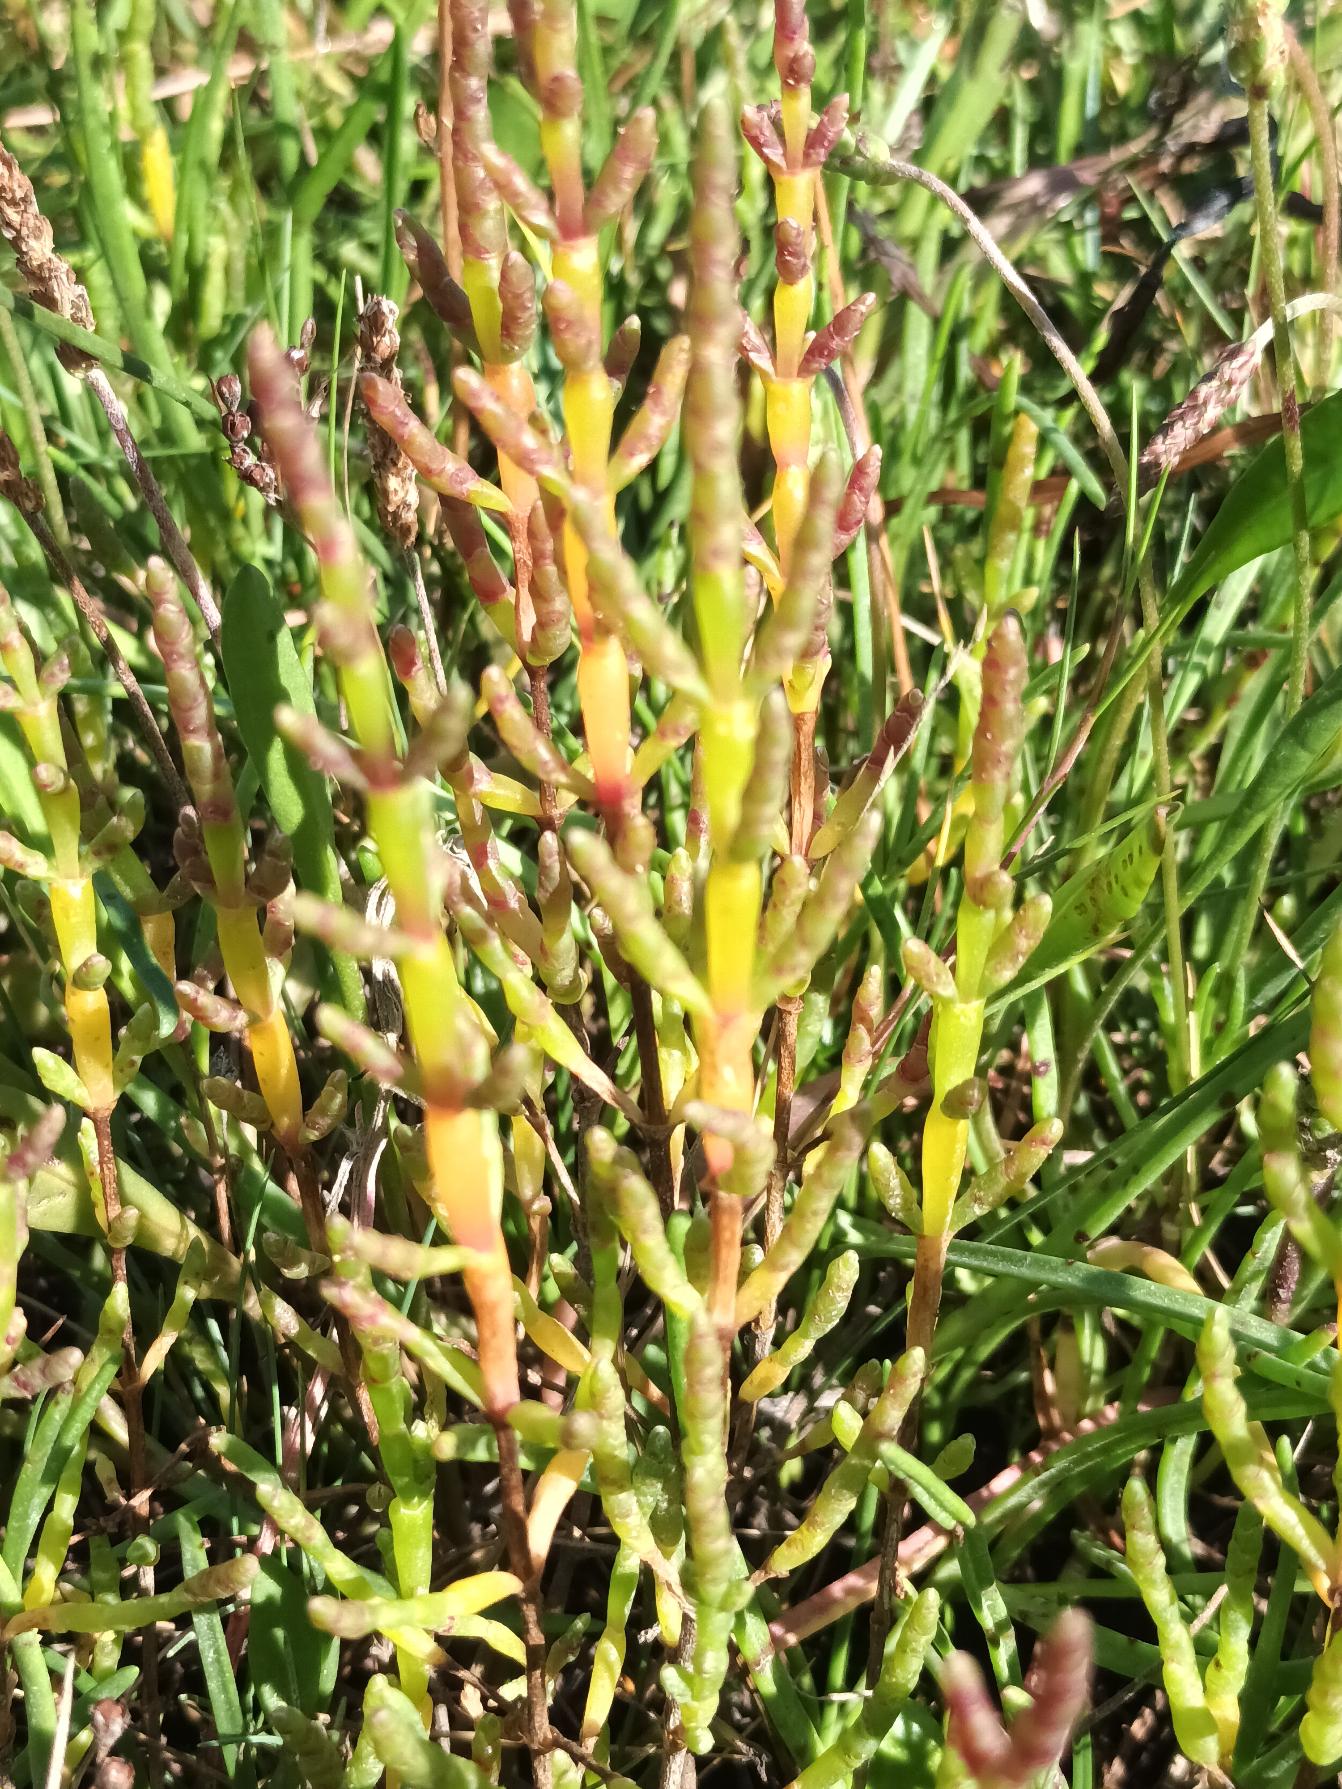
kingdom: Plantae
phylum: Tracheophyta
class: Magnoliopsida
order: Caryophyllales
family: Amaranthaceae
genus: Salicornia
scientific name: Salicornia europaea
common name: Almindelig salturt
